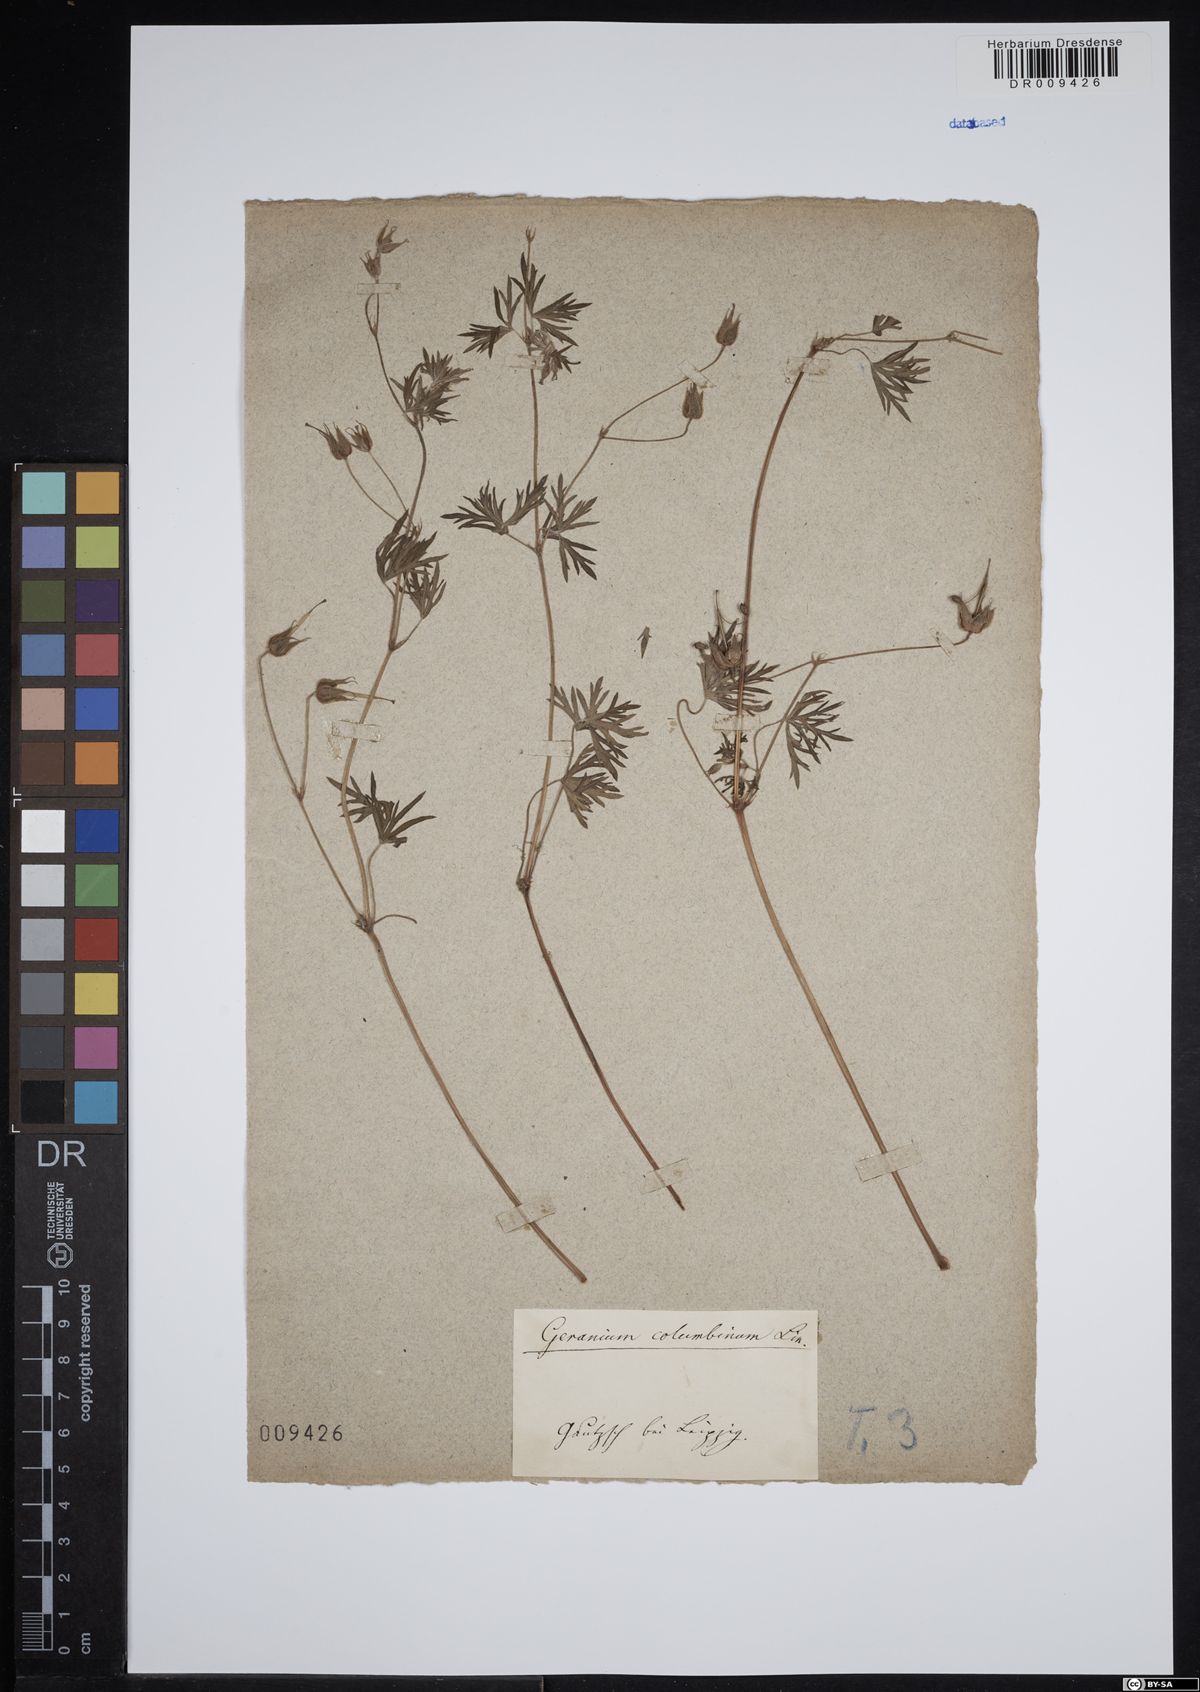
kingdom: Plantae
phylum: Tracheophyta
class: Magnoliopsida
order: Geraniales
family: Geraniaceae
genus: Geranium
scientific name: Geranium columbinum
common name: Long-stalked crane's-bill
